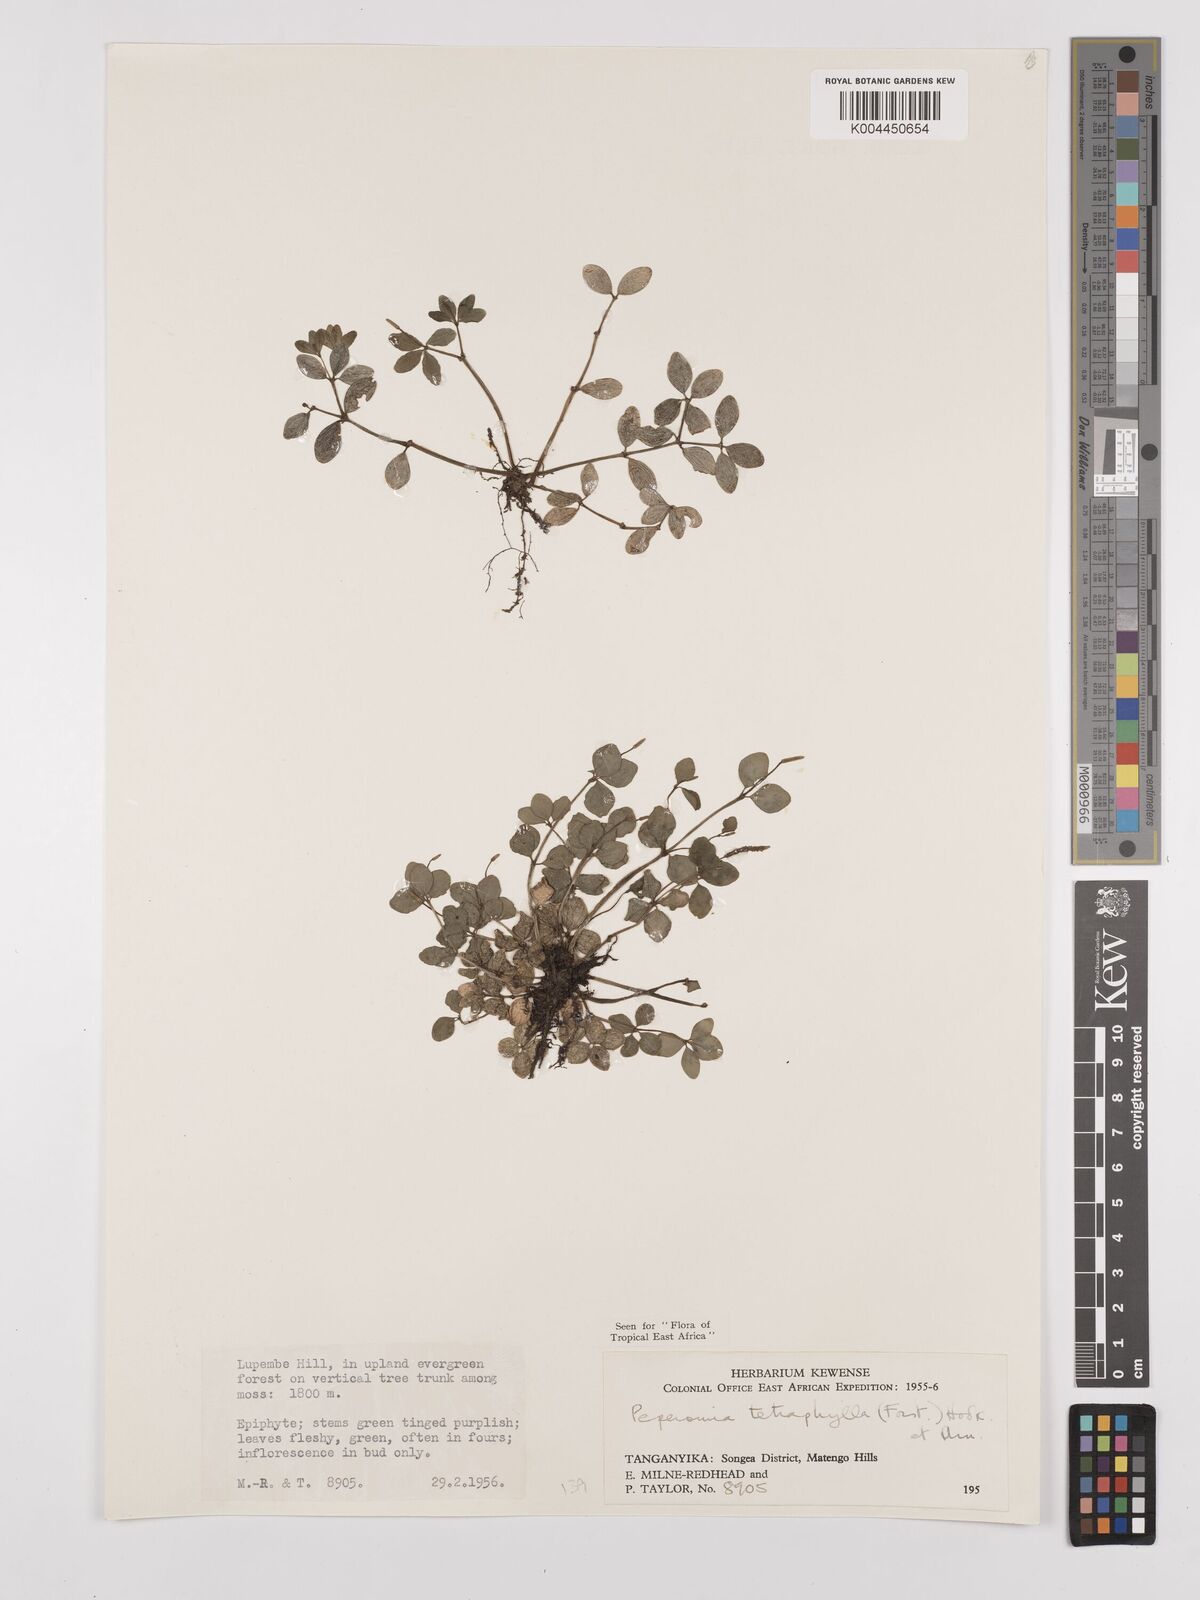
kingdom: Plantae
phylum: Tracheophyta
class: Magnoliopsida
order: Piperales
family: Piperaceae
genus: Peperomia
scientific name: Peperomia tetraphylla
